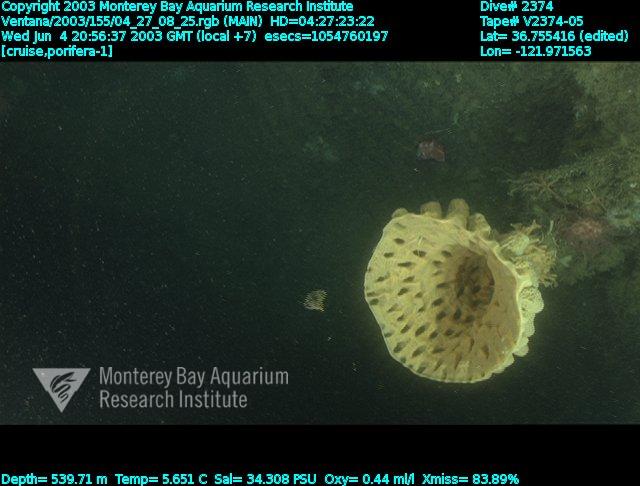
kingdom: Animalia
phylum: Porifera
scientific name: Porifera
